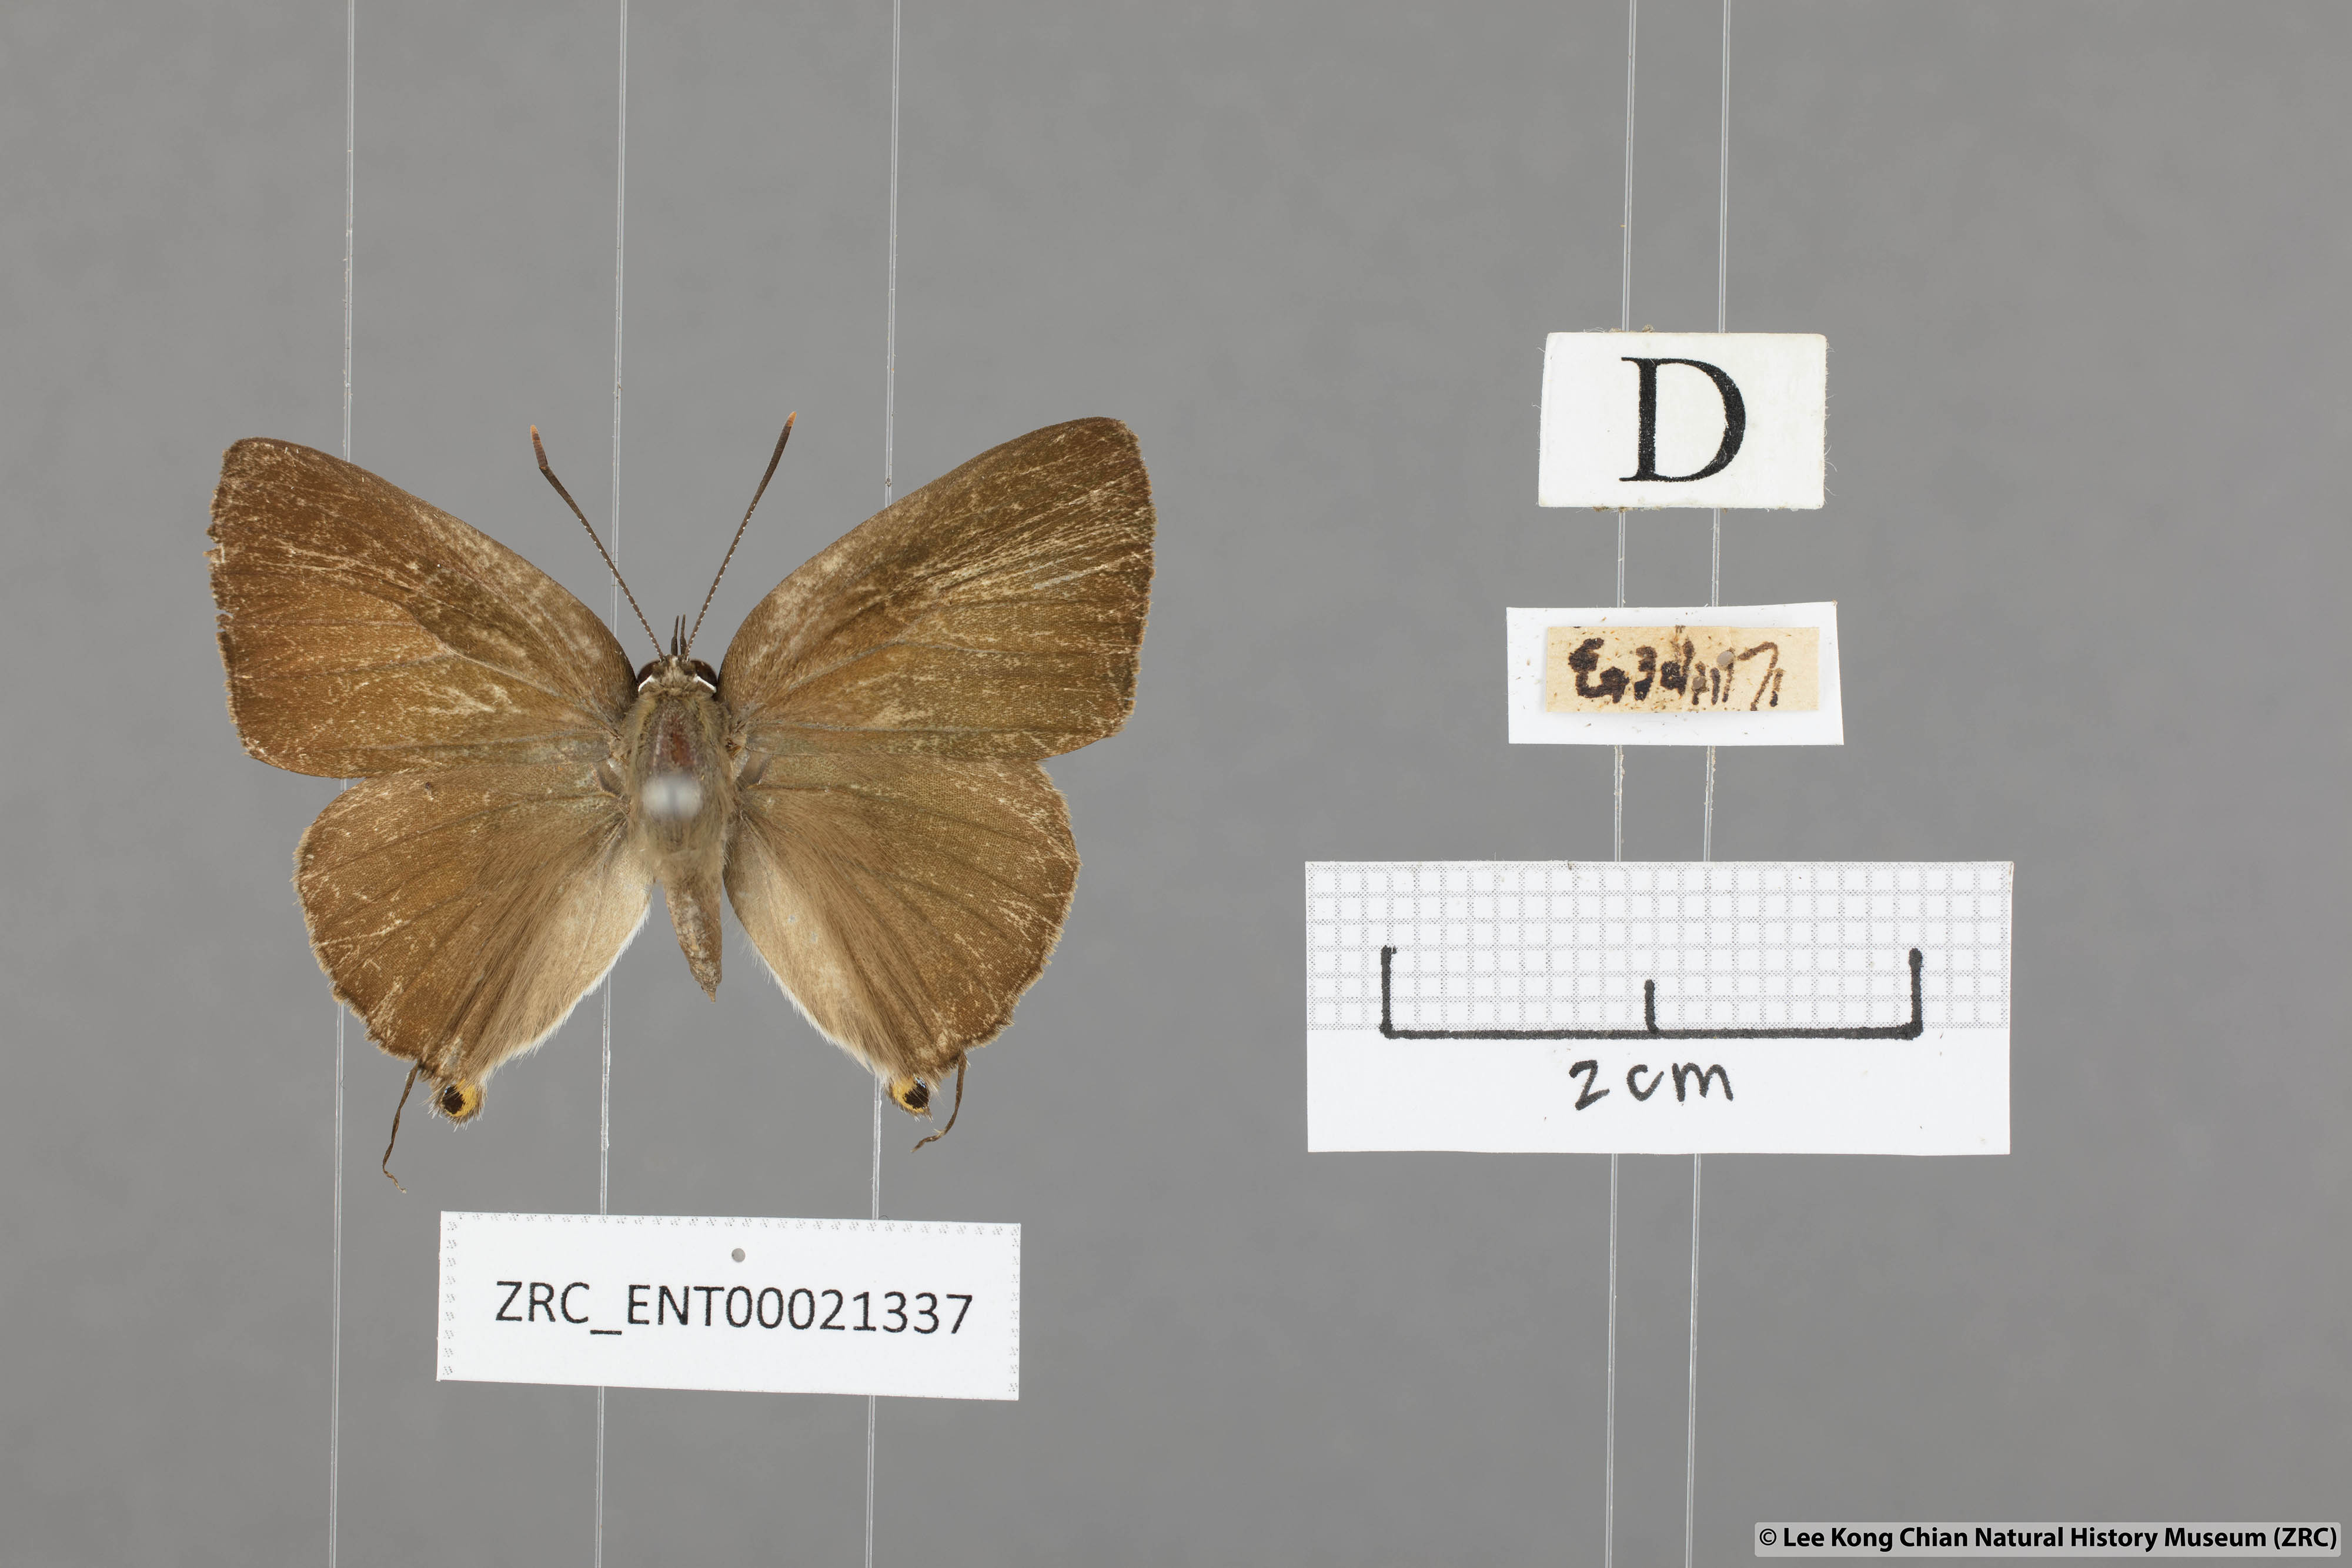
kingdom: Animalia
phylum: Arthropoda
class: Insecta
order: Lepidoptera
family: Lycaenidae
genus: Deudorix
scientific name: Deudorix epijarbas
